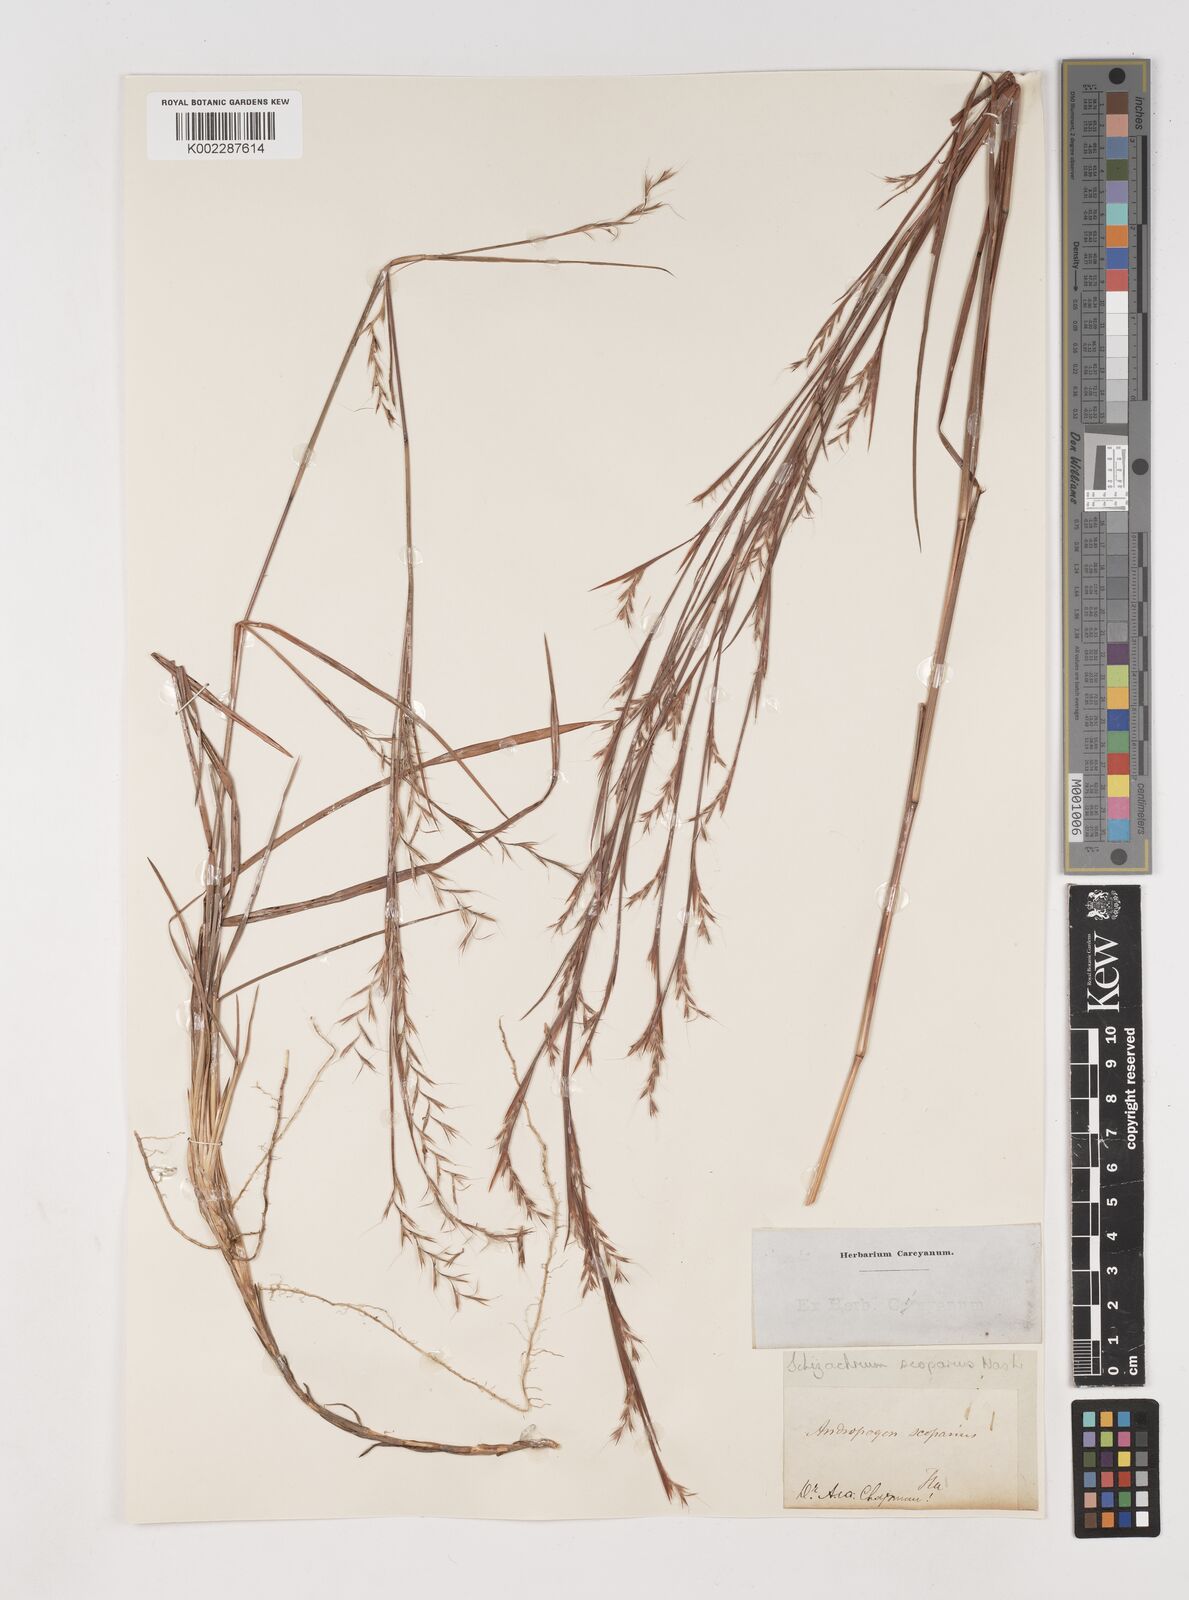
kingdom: Plantae
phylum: Tracheophyta
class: Liliopsida
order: Poales
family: Poaceae
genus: Schizachyrium
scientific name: Schizachyrium scoparium
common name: Little bluestem
